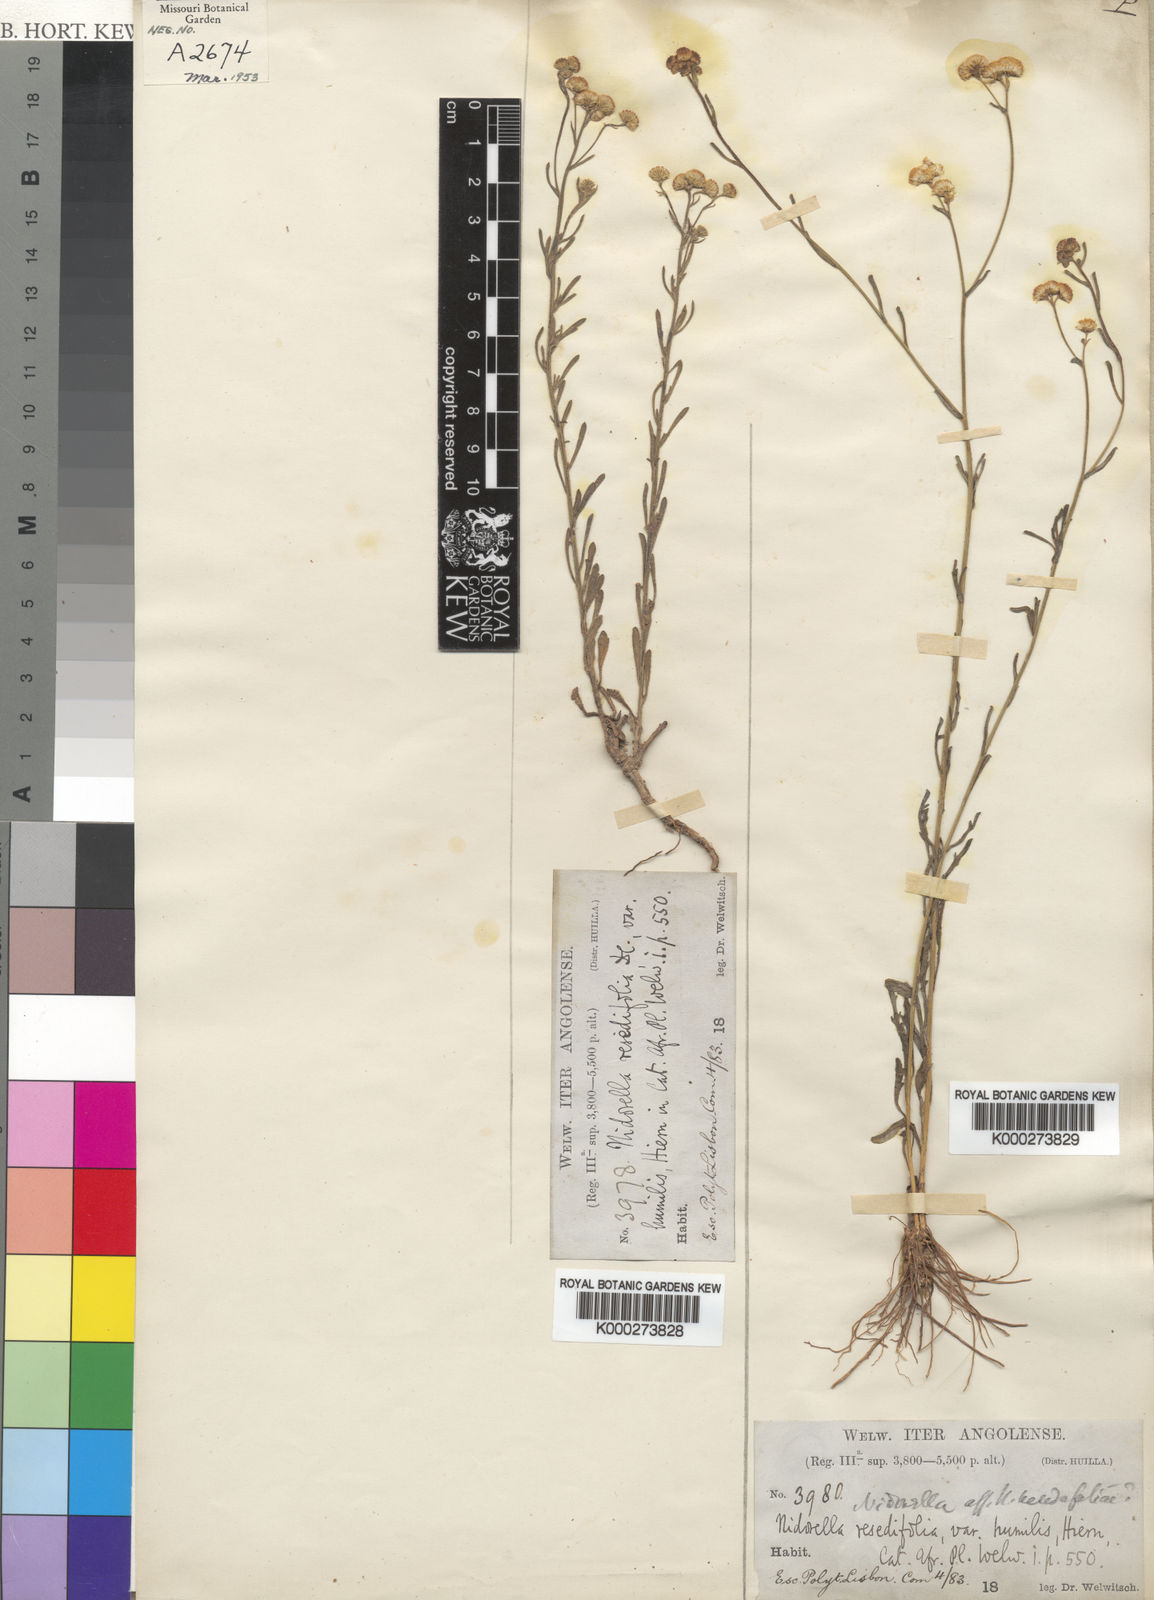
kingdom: Plantae
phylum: Tracheophyta
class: Magnoliopsida
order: Asterales
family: Asteraceae
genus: Nidorella
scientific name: Nidorella resedifolia
